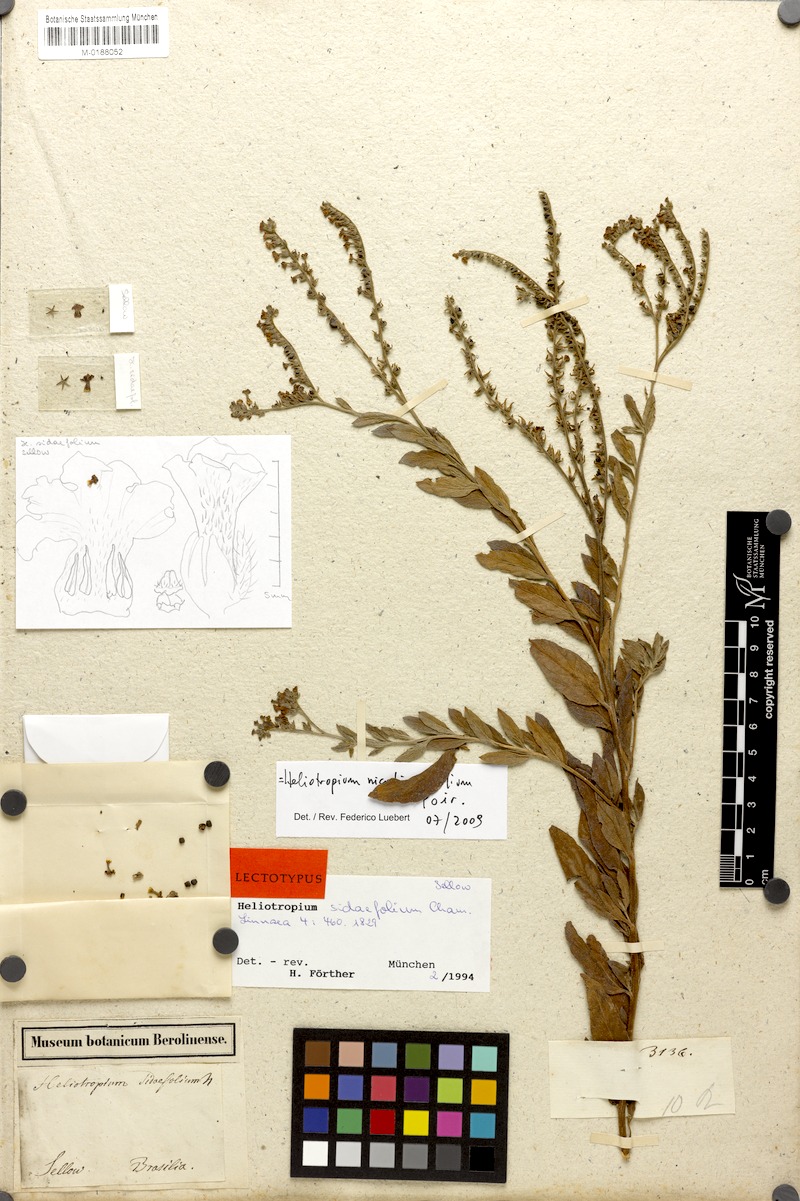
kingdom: Plantae
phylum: Tracheophyta
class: Magnoliopsida
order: Boraginales
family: Heliotropiaceae
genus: Heliotropium
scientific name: Heliotropium nicotianifolium
